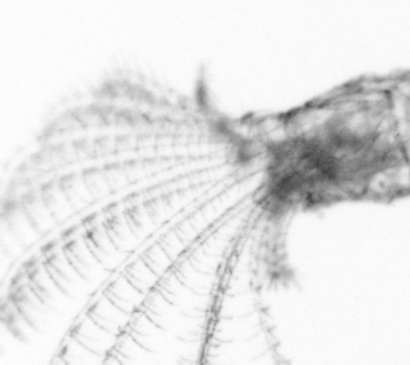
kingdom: Animalia
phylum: Arthropoda
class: Maxillopoda
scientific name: Maxillopoda
